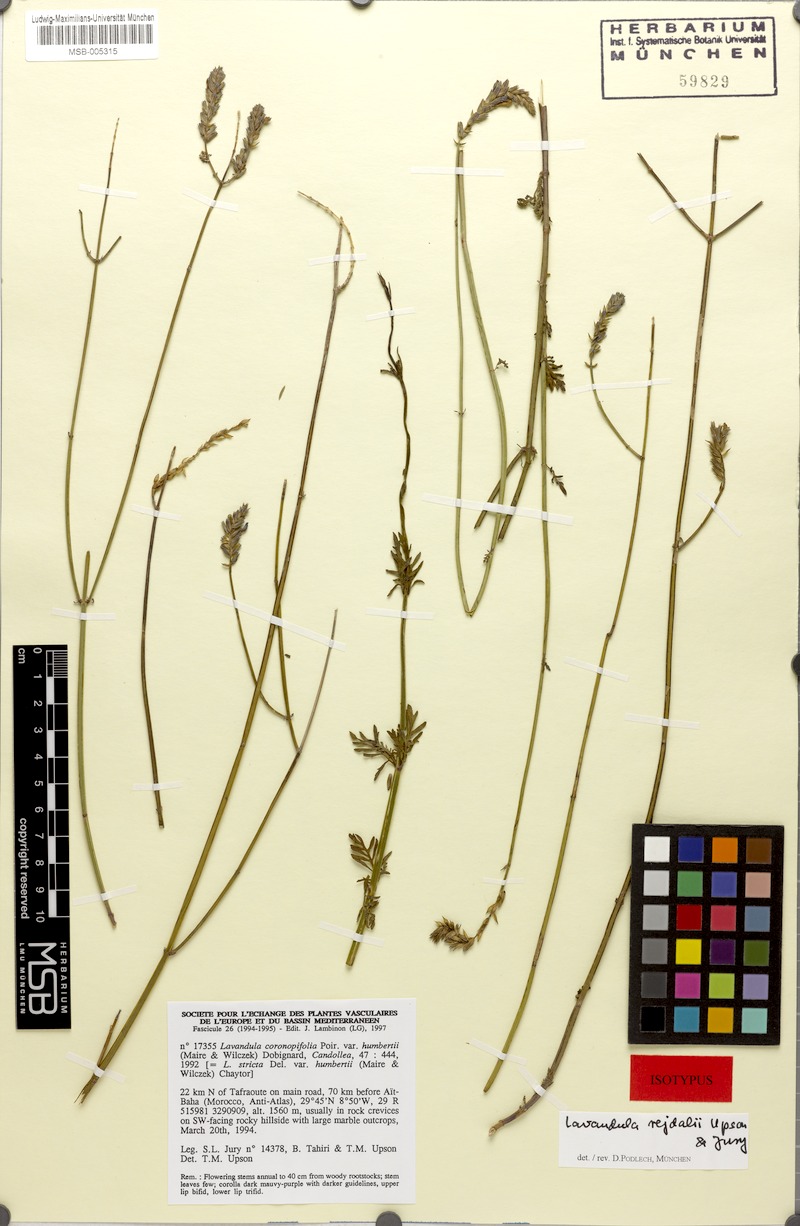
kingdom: Plantae
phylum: Tracheophyta
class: Magnoliopsida
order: Lamiales
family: Lamiaceae
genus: Lavandula
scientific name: Lavandula rejdalii
